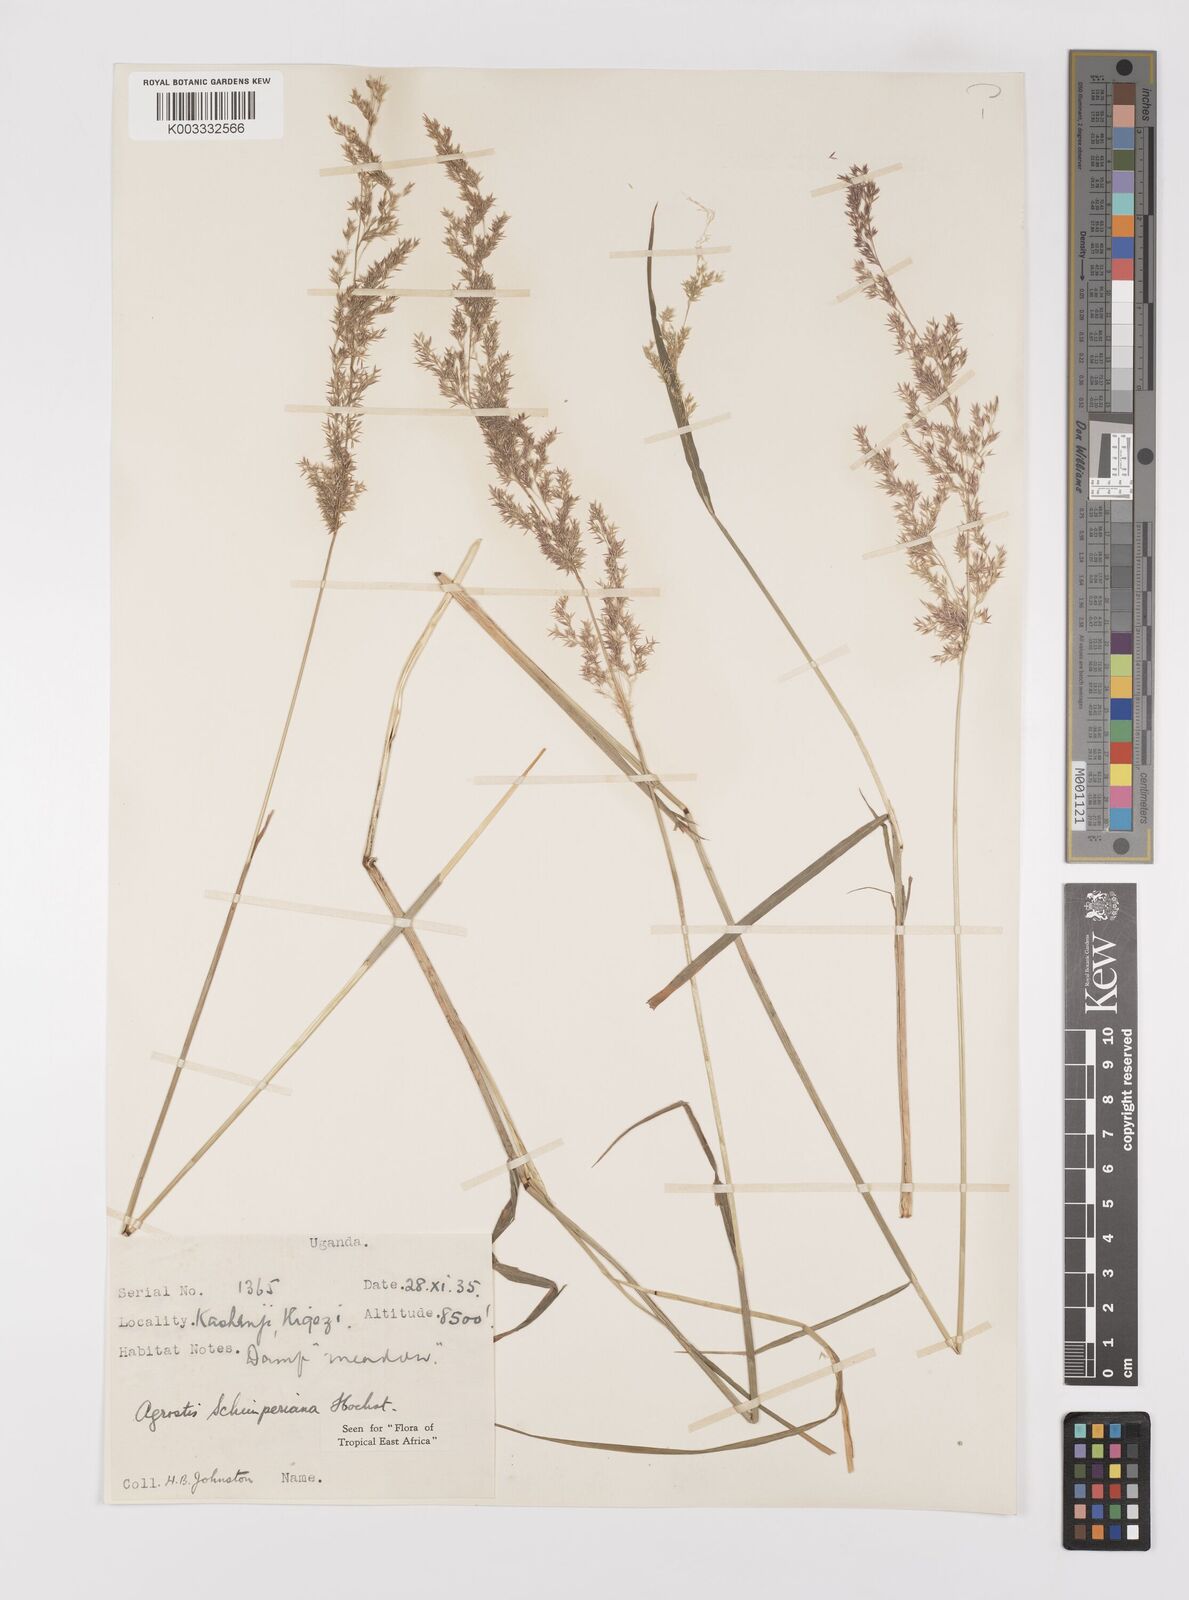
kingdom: Plantae
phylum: Tracheophyta
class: Liliopsida
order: Poales
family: Poaceae
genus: Polypogon
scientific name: Polypogon schimperianus
